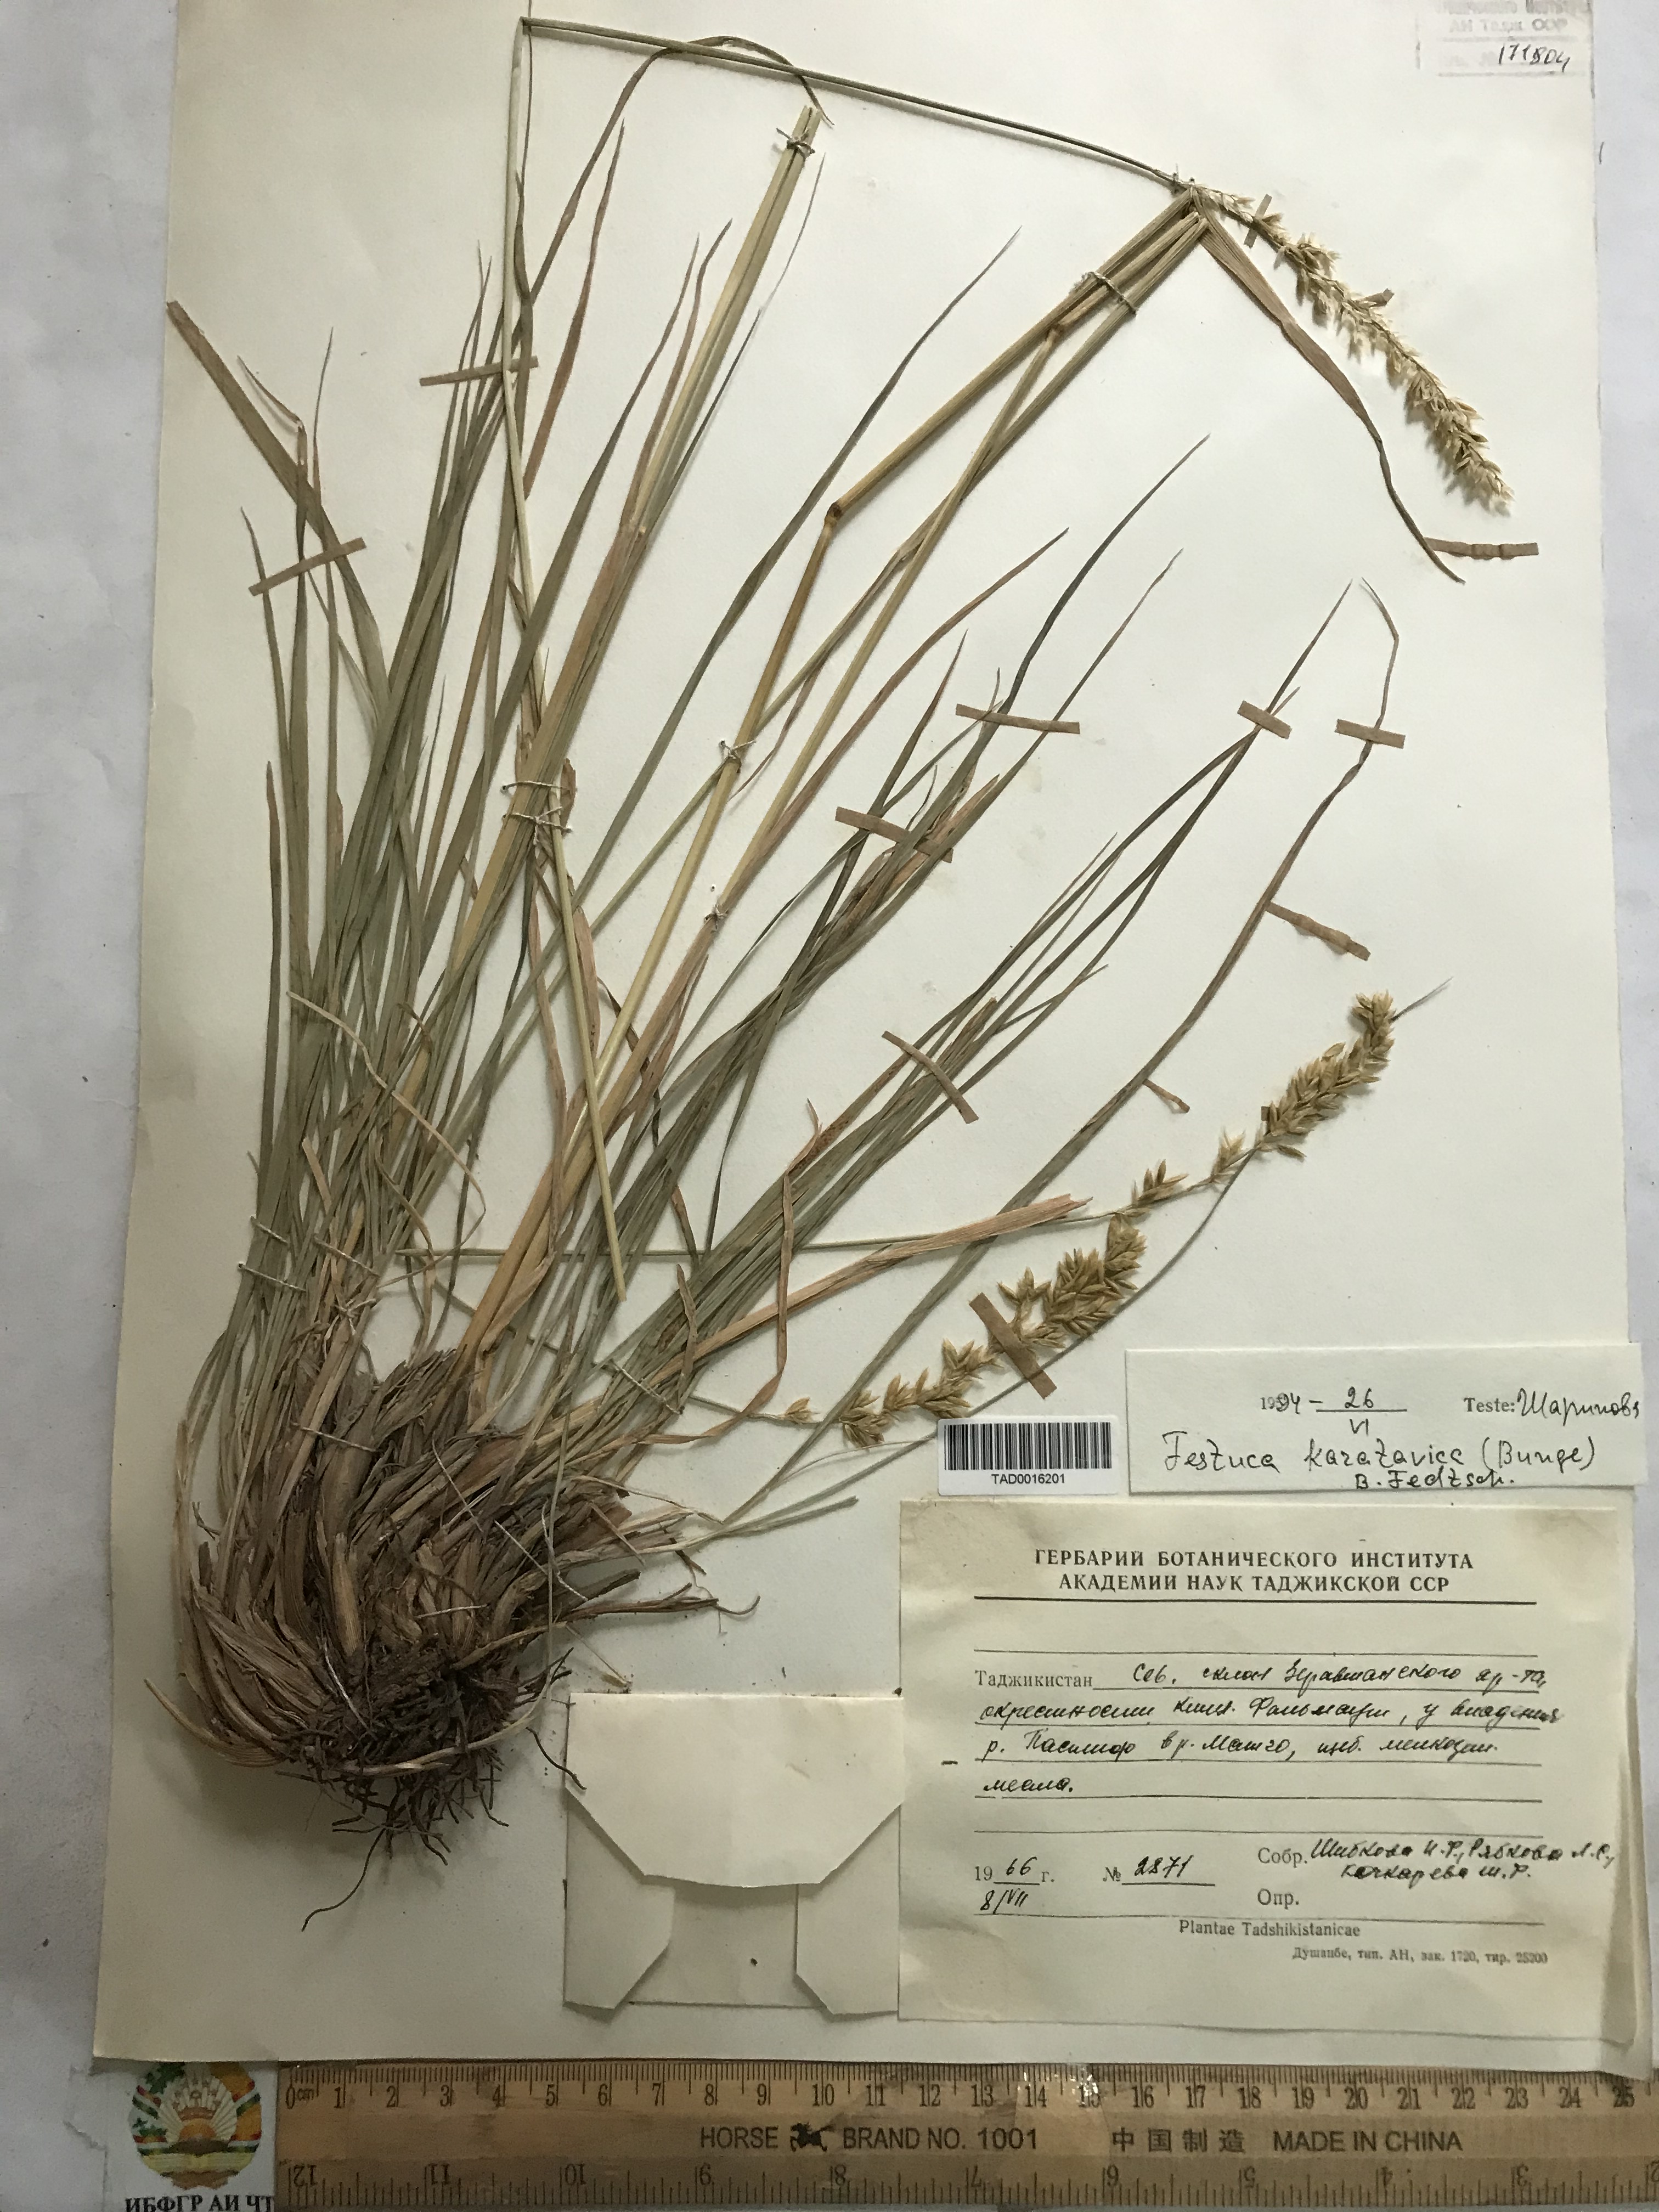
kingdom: Plantae
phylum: Tracheophyta
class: Liliopsida
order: Poales
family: Poaceae
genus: Festuca
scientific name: Festuca karatavica
